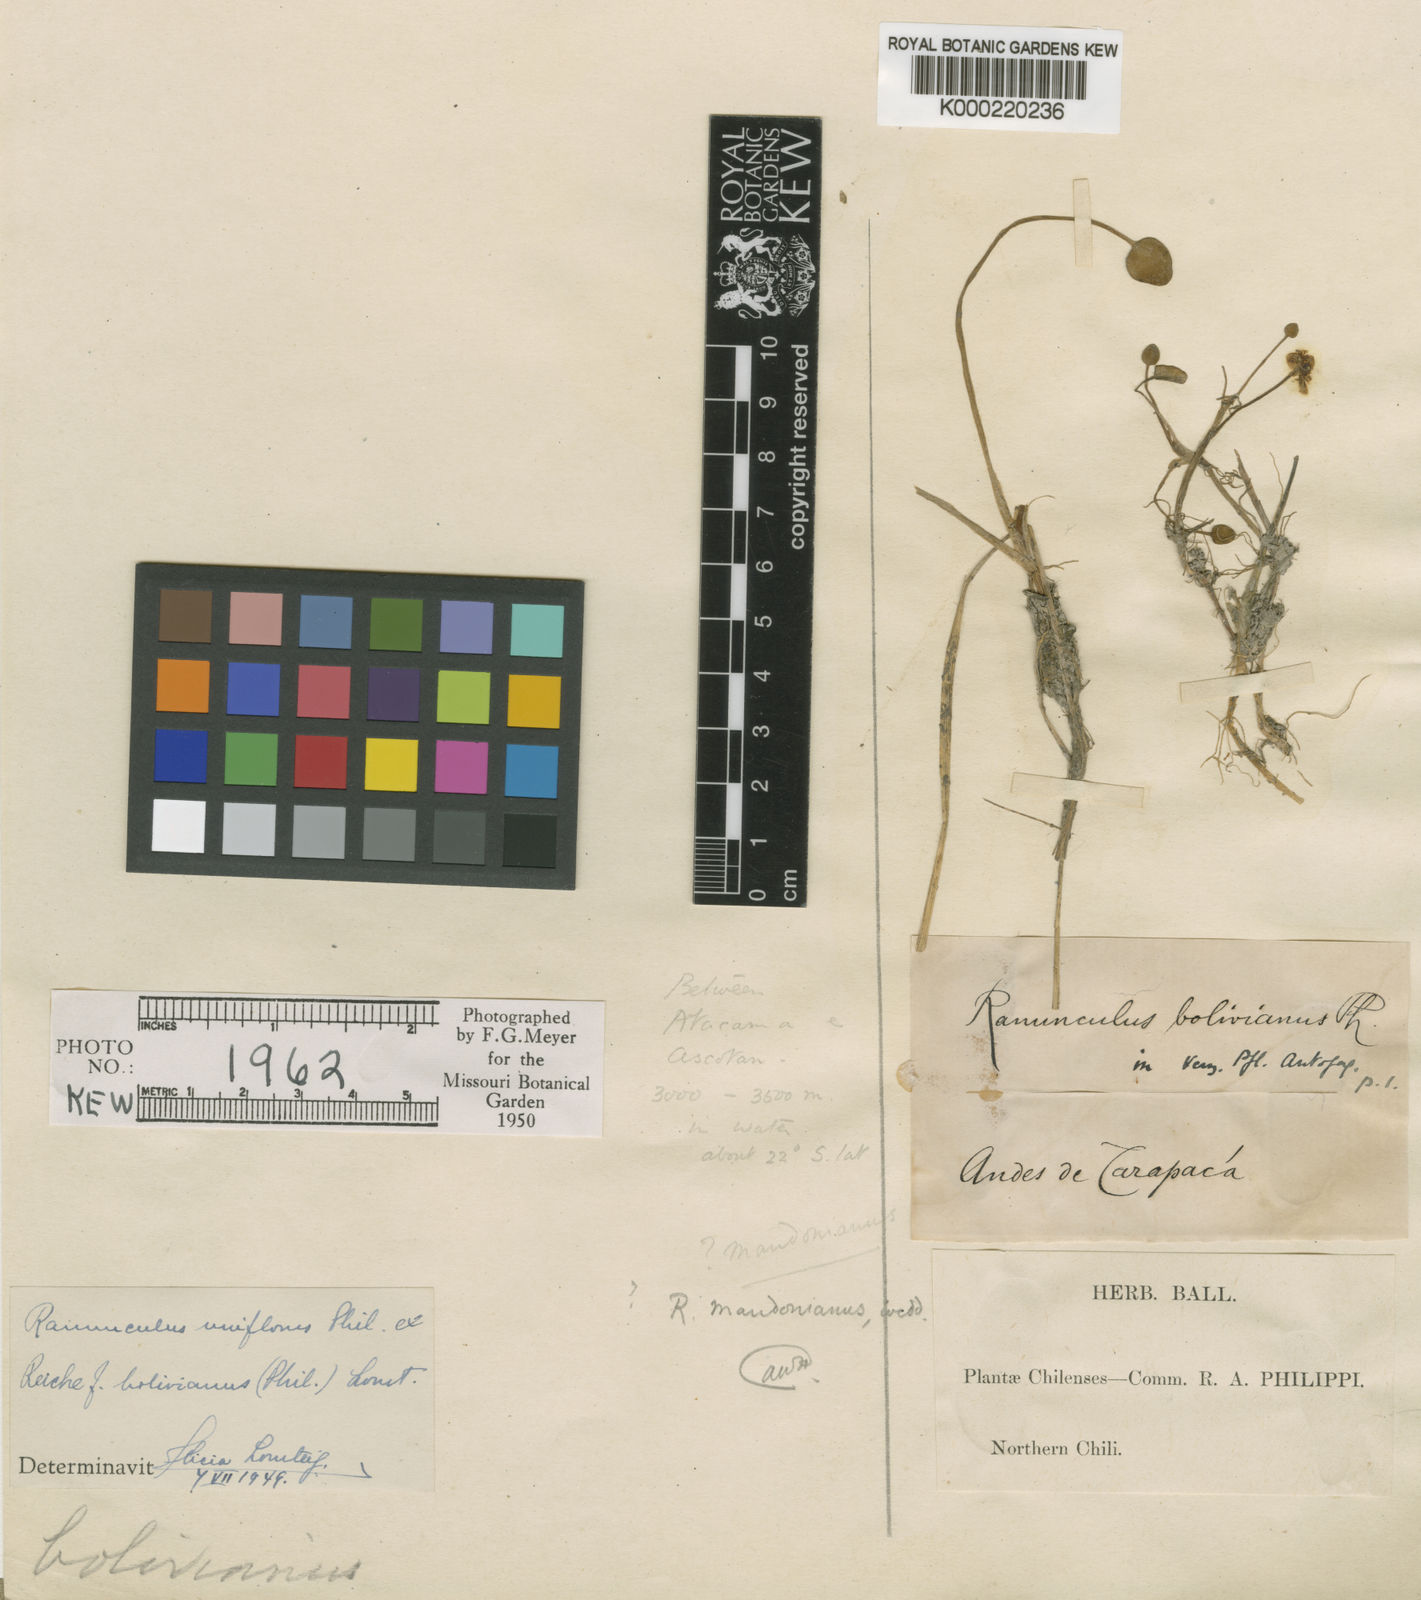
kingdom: Plantae
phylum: Tracheophyta
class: Magnoliopsida
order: Ranunculales
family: Ranunculaceae
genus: Halerpestes
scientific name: Halerpestes uniflora
